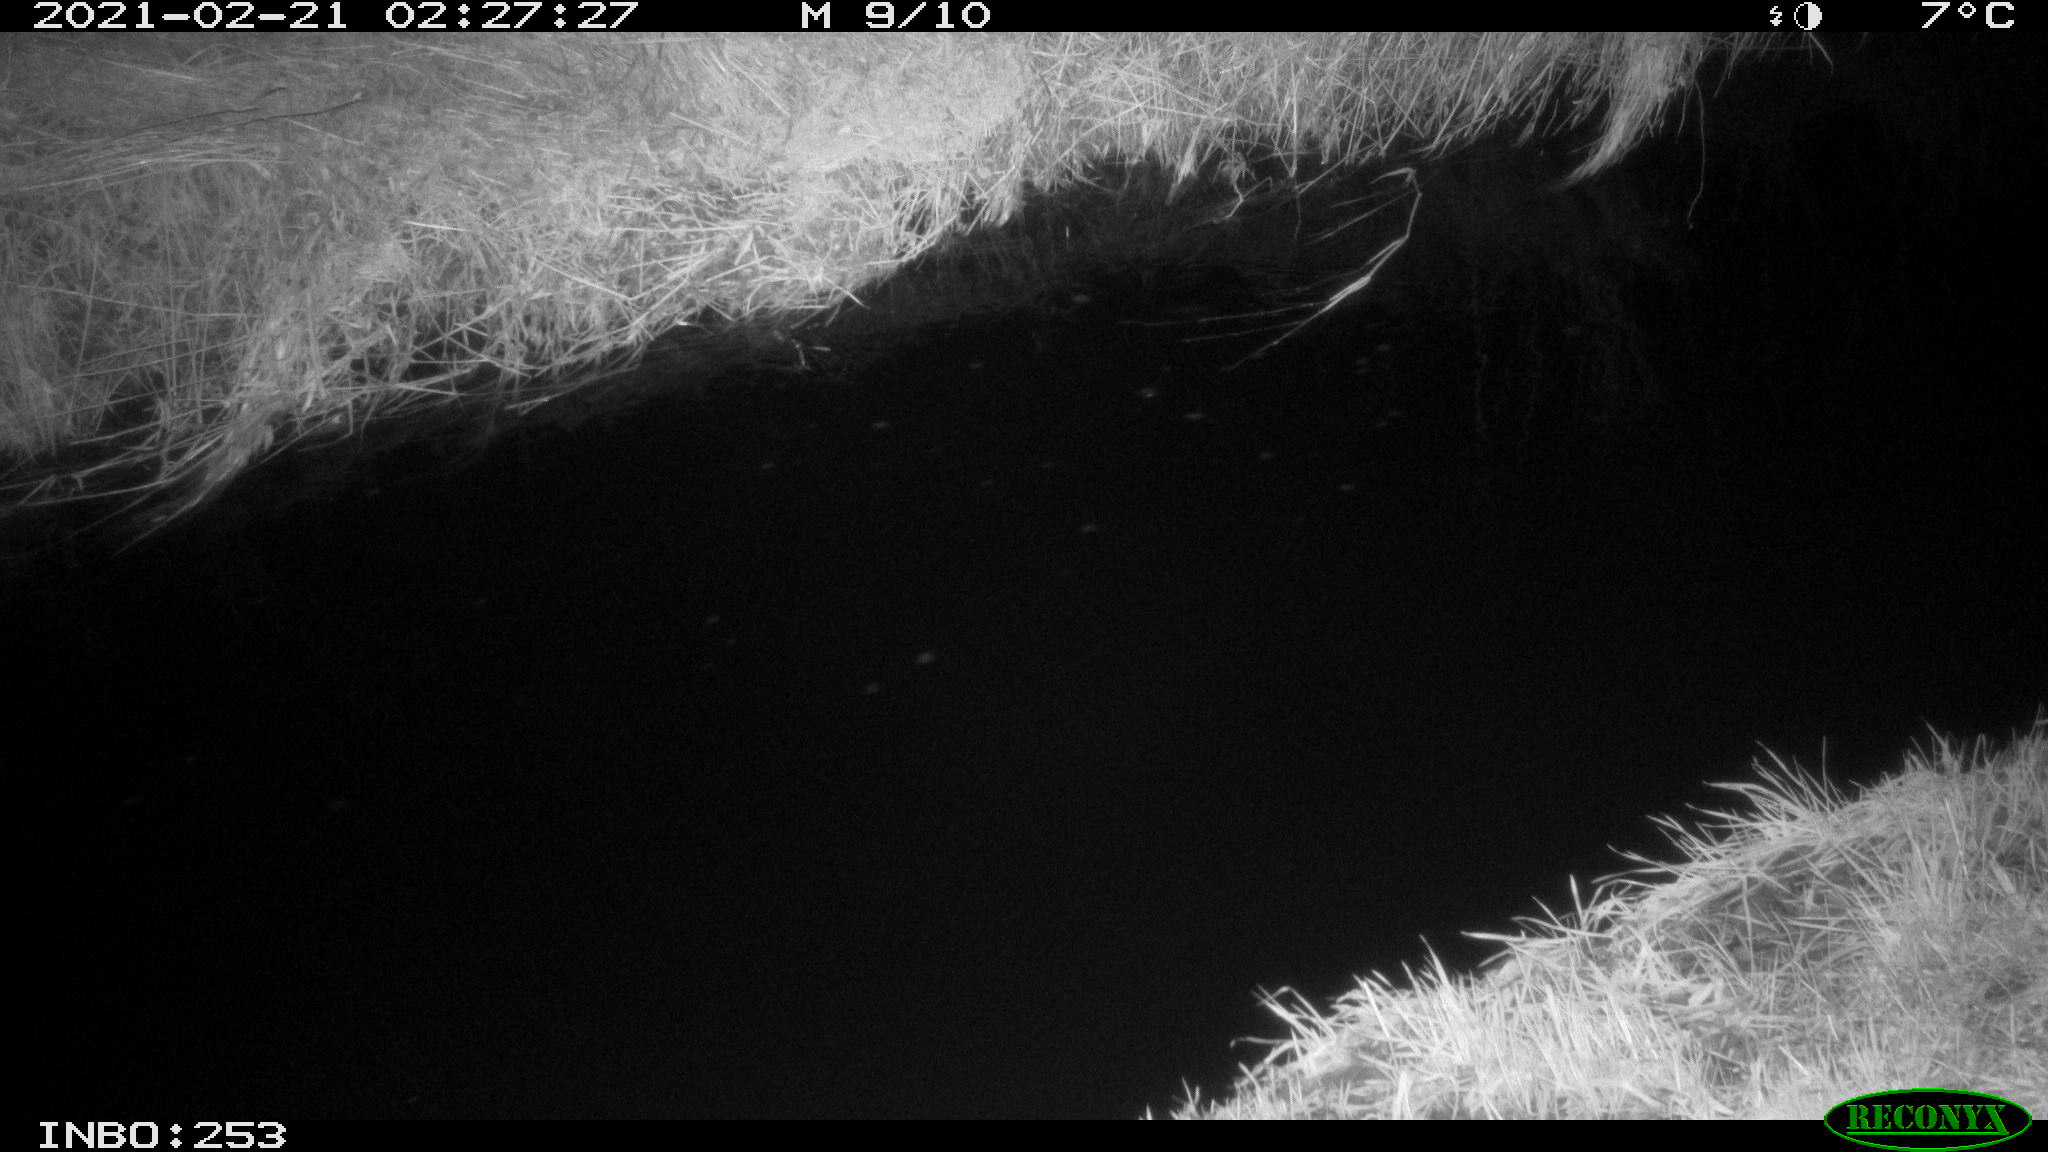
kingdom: Animalia
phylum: Chordata
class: Mammalia
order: Rodentia
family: Muridae
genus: Rattus
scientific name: Rattus norvegicus
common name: Brown rat
